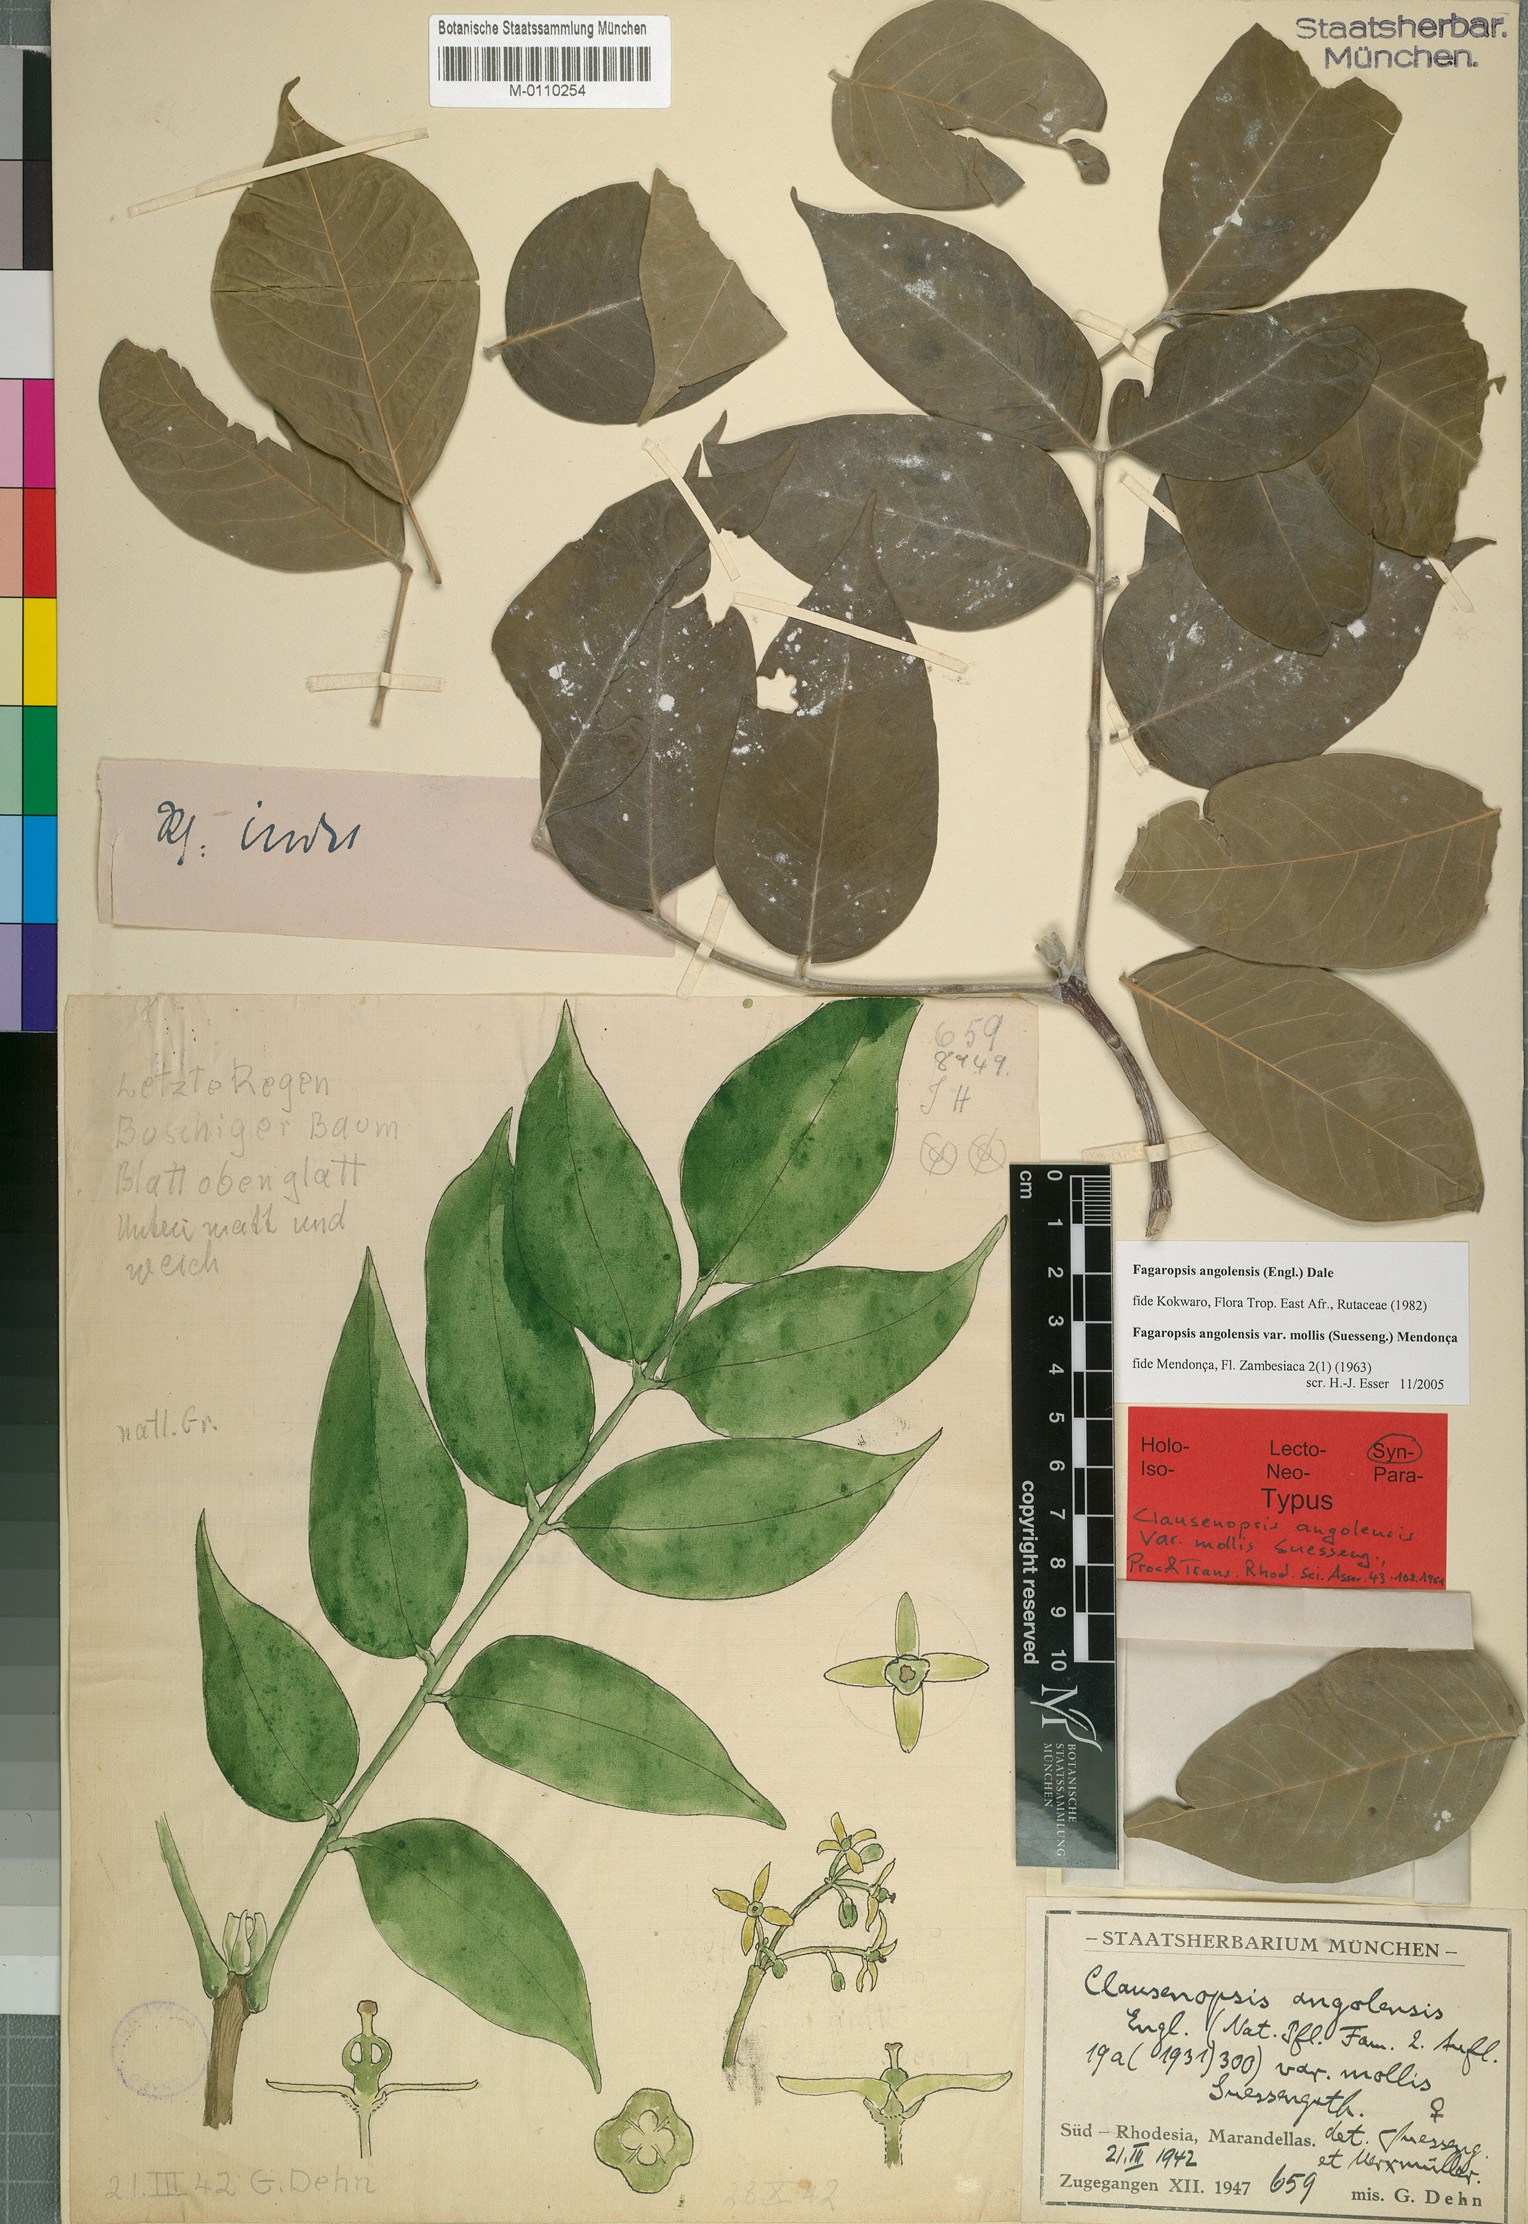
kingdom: Plantae
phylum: Tracheophyta
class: Magnoliopsida
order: Sapindales
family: Rutaceae
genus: Fagaropsis
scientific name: Fagaropsis angolensis
